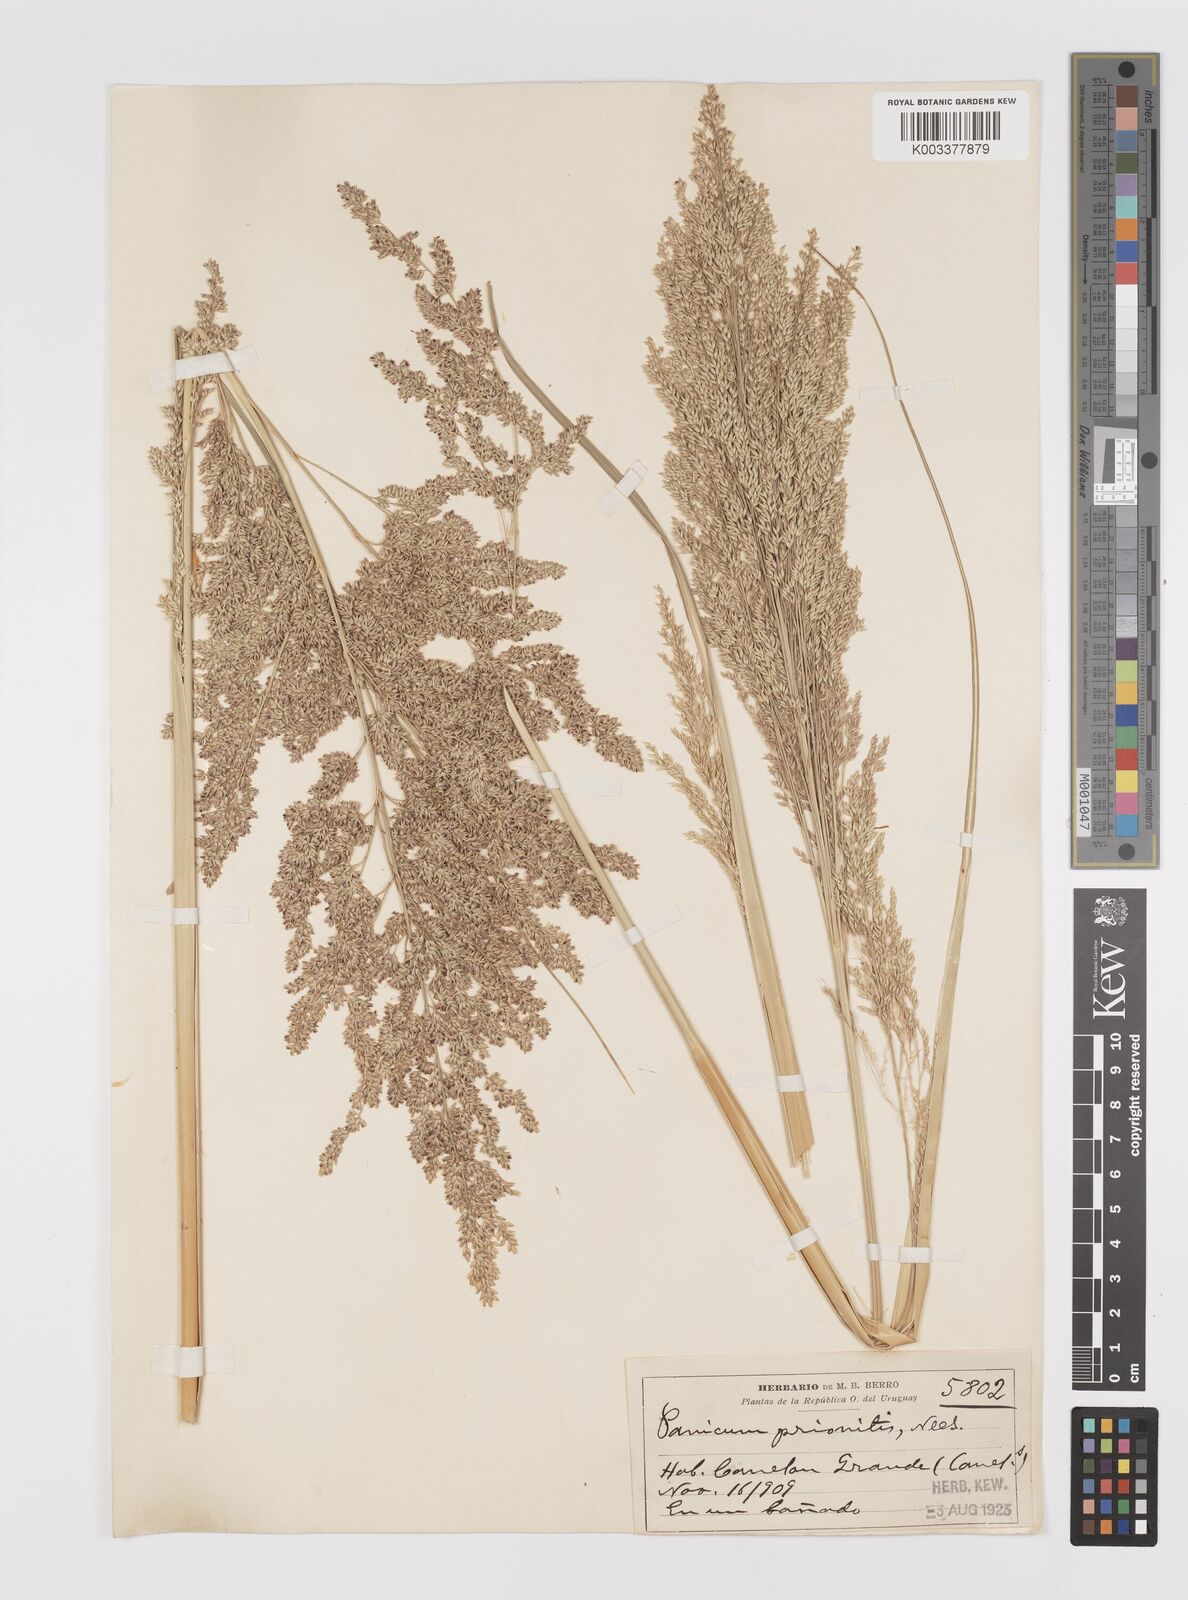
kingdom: Plantae
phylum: Tracheophyta
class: Liliopsida
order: Poales
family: Poaceae
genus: Coleataenia
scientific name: Coleataenia prionitis
